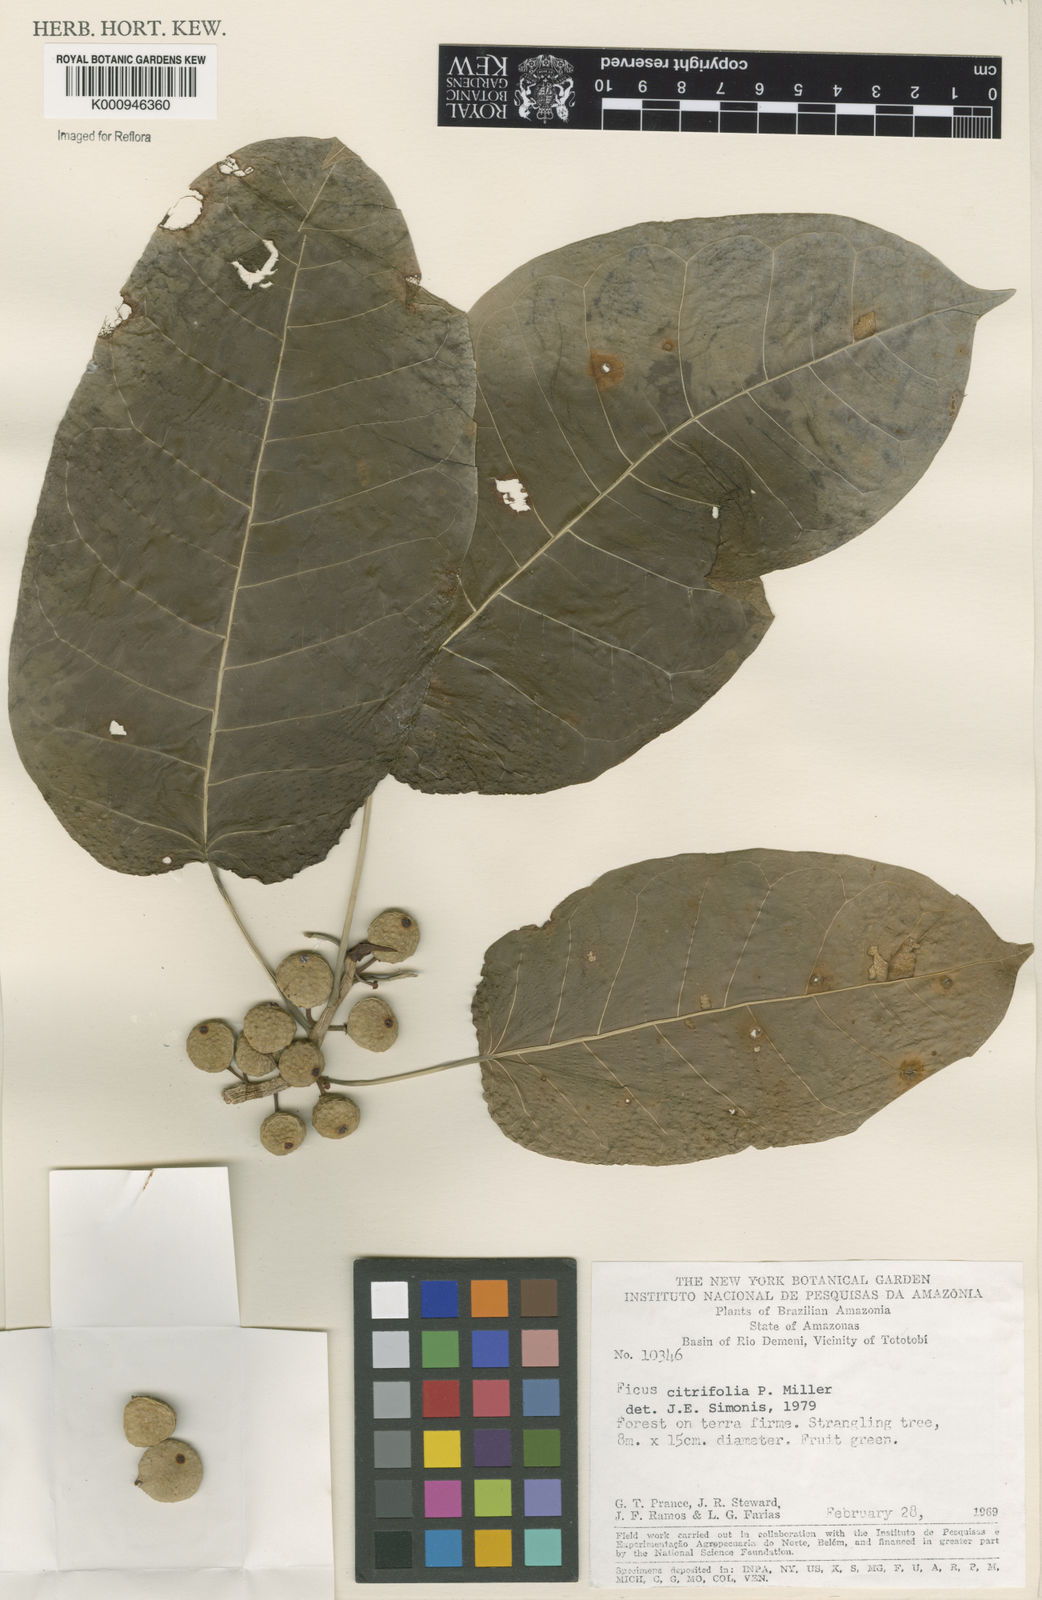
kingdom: Plantae
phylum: Tracheophyta
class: Magnoliopsida
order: Rosales
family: Moraceae
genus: Ficus
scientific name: Ficus citrifolia
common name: Strangler fig
